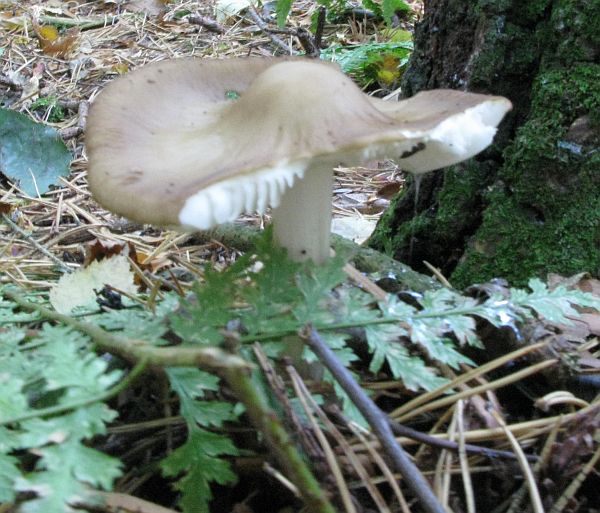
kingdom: Fungi
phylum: Basidiomycota
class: Agaricomycetes
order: Agaricales
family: Physalacriaceae
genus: Hymenopellis
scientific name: Hymenopellis radicata
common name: almindelig pælerodshat
